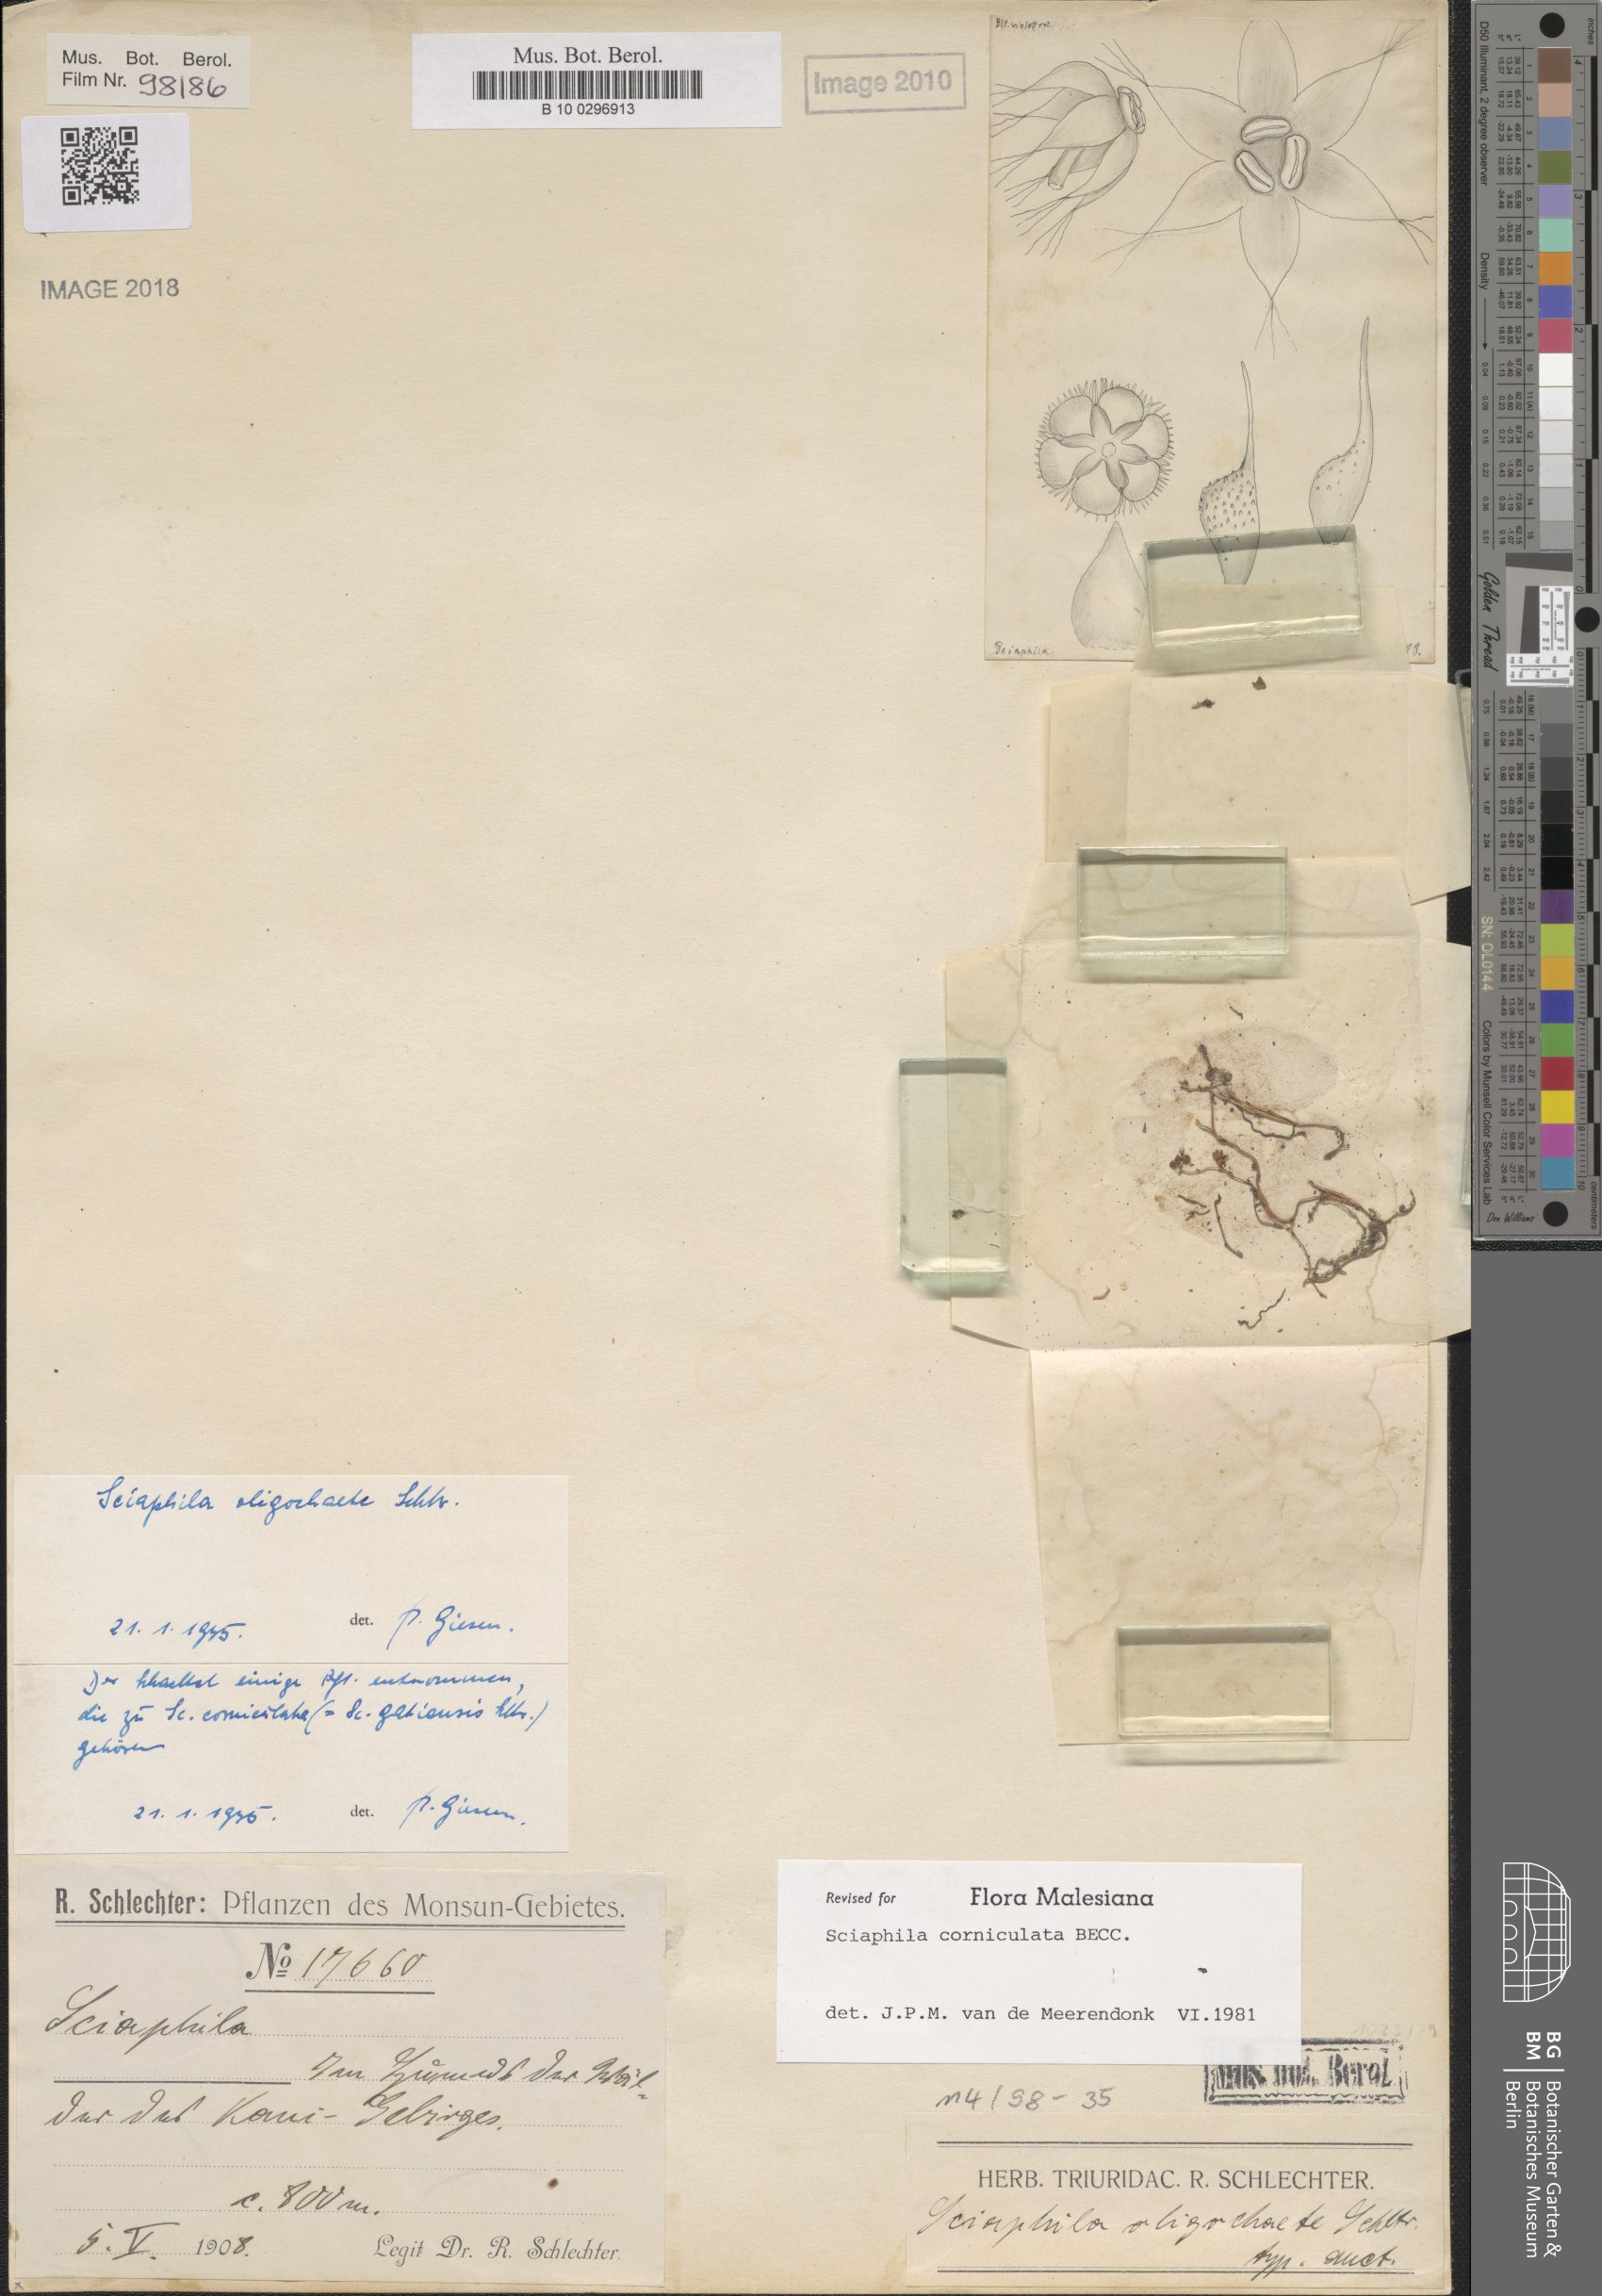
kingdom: Plantae
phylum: Tracheophyta
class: Liliopsida
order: Pandanales
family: Triuridaceae
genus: Sciaphila
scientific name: Sciaphila corniculata
